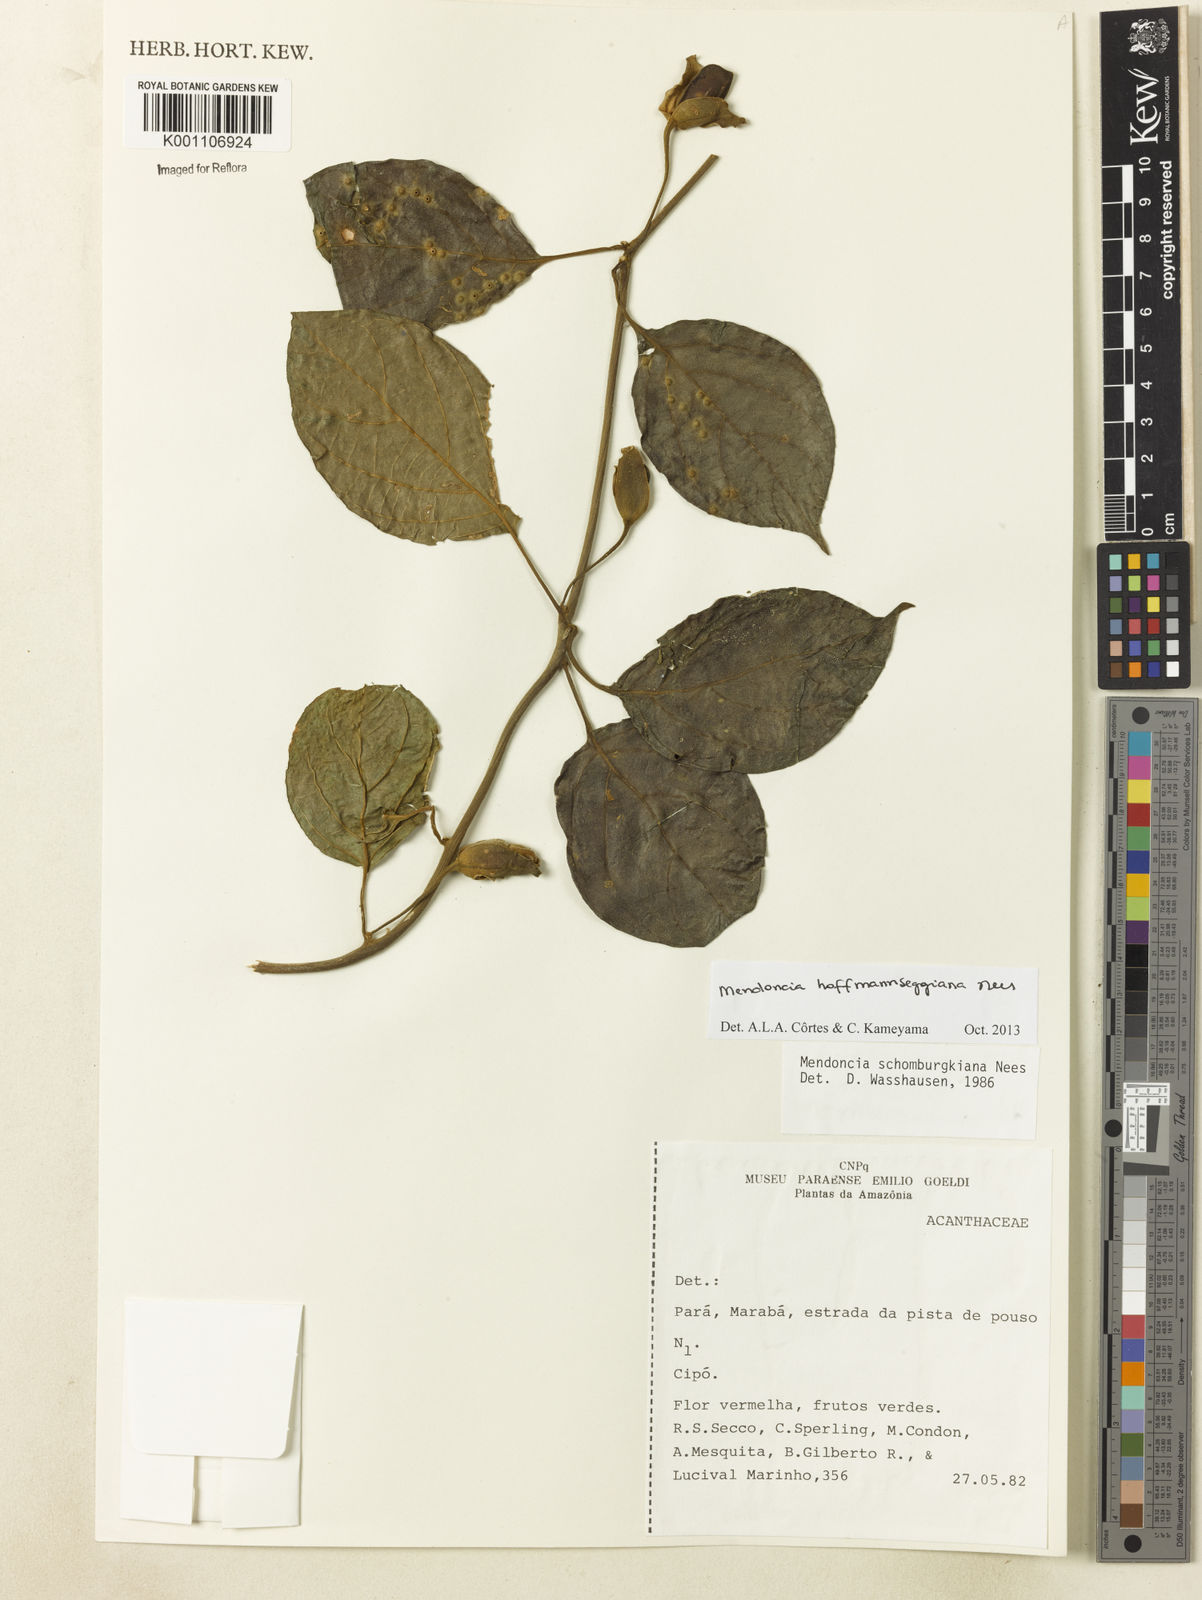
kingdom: Plantae
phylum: Tracheophyta
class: Magnoliopsida
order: Lamiales
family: Acanthaceae
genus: Mendoncia
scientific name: Mendoncia hoffmannseggiana
